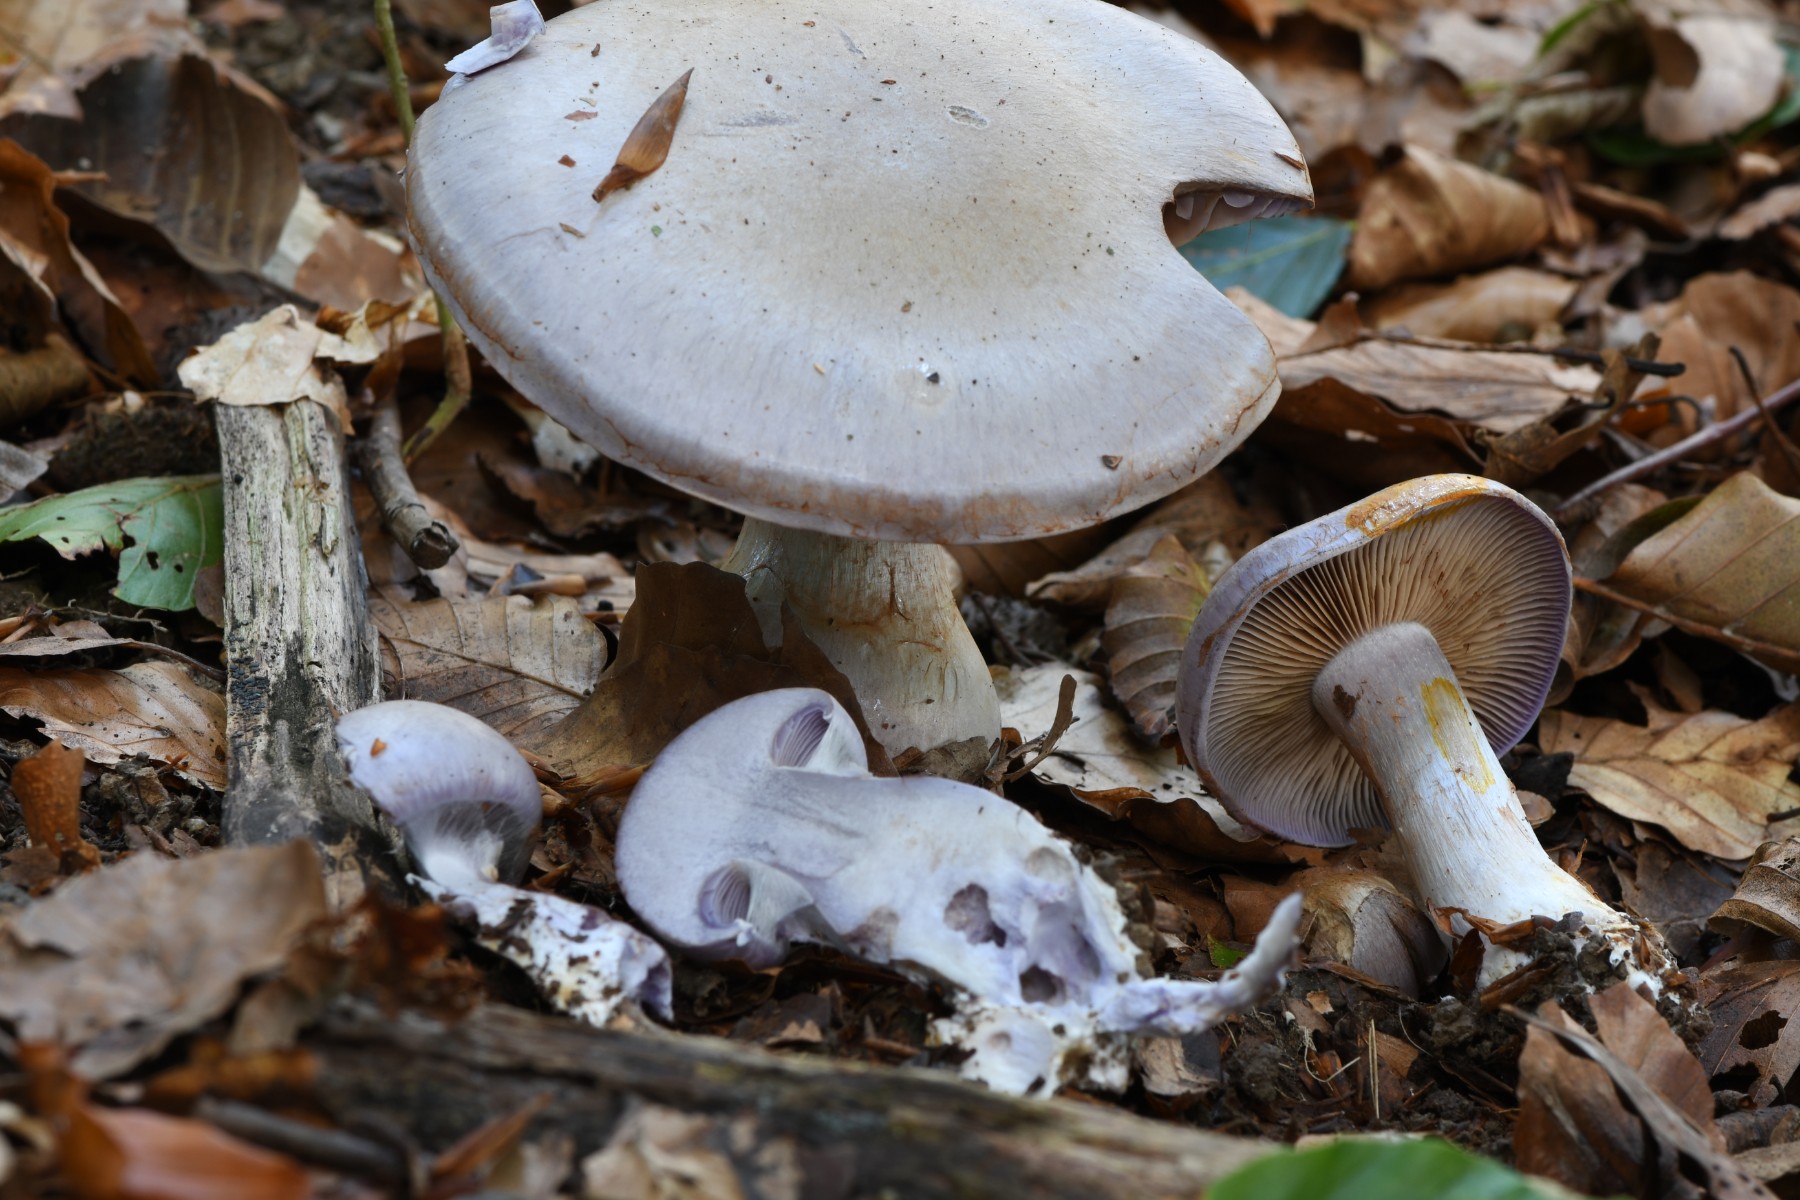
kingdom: Fungi
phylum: Basidiomycota
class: Agaricomycetes
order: Agaricales
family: Cortinariaceae
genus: Cortinarius
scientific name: Cortinarius largus
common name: violetrandet slørhat
